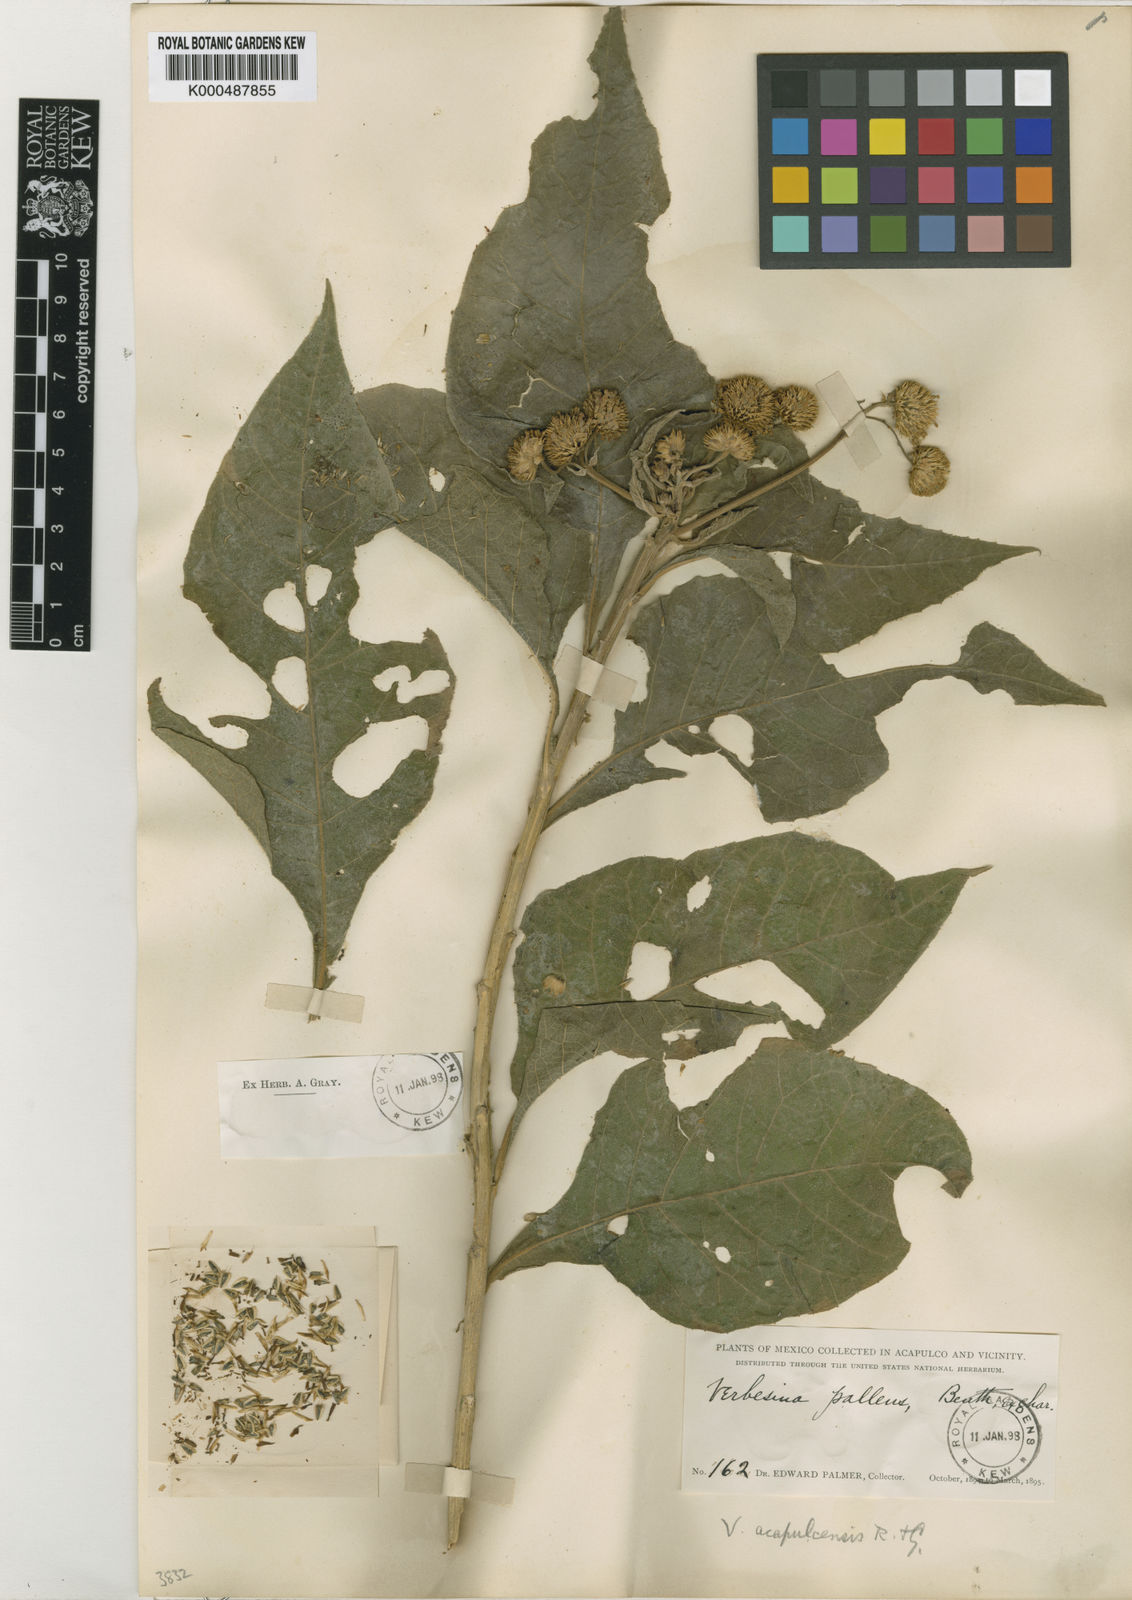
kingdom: Plantae
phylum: Tracheophyta
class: Magnoliopsida
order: Asterales
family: Asteraceae
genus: Verbesina
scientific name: Verbesina acapulcensis
